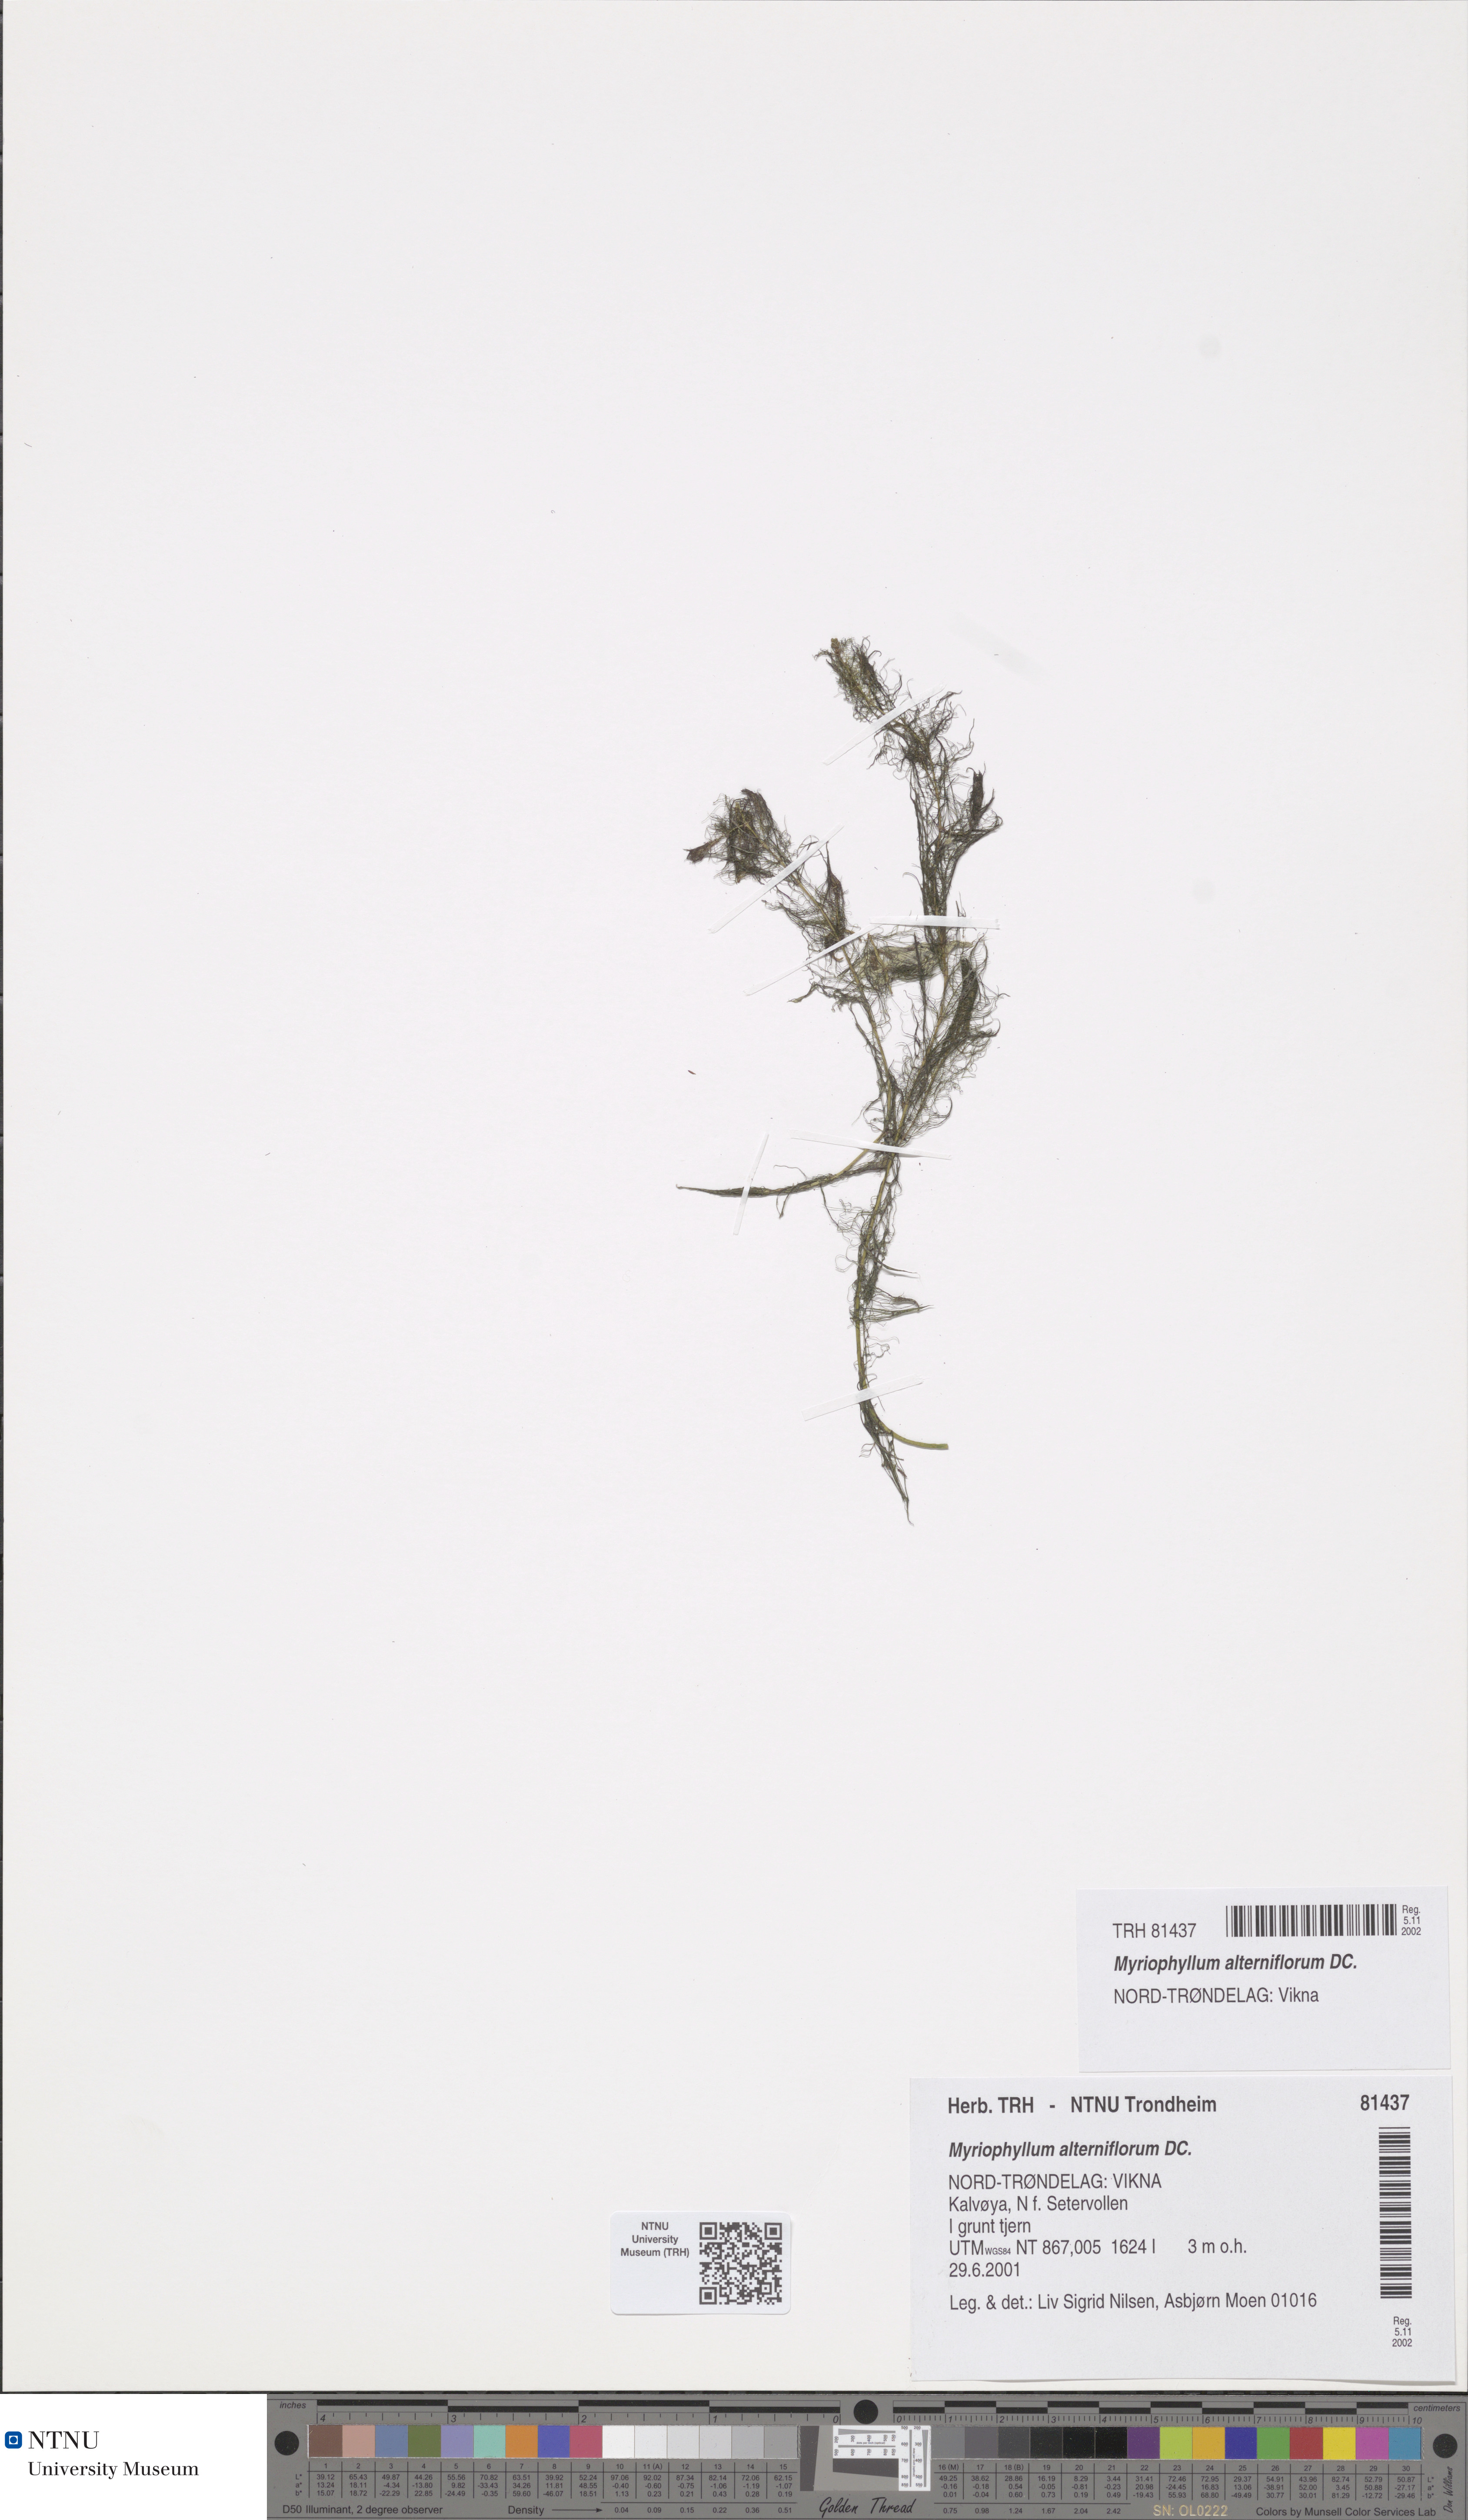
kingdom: Plantae
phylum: Tracheophyta
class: Magnoliopsida
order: Saxifragales
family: Haloragaceae
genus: Myriophyllum
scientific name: Myriophyllum alterniflorum
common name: Alternate water-milfoil
